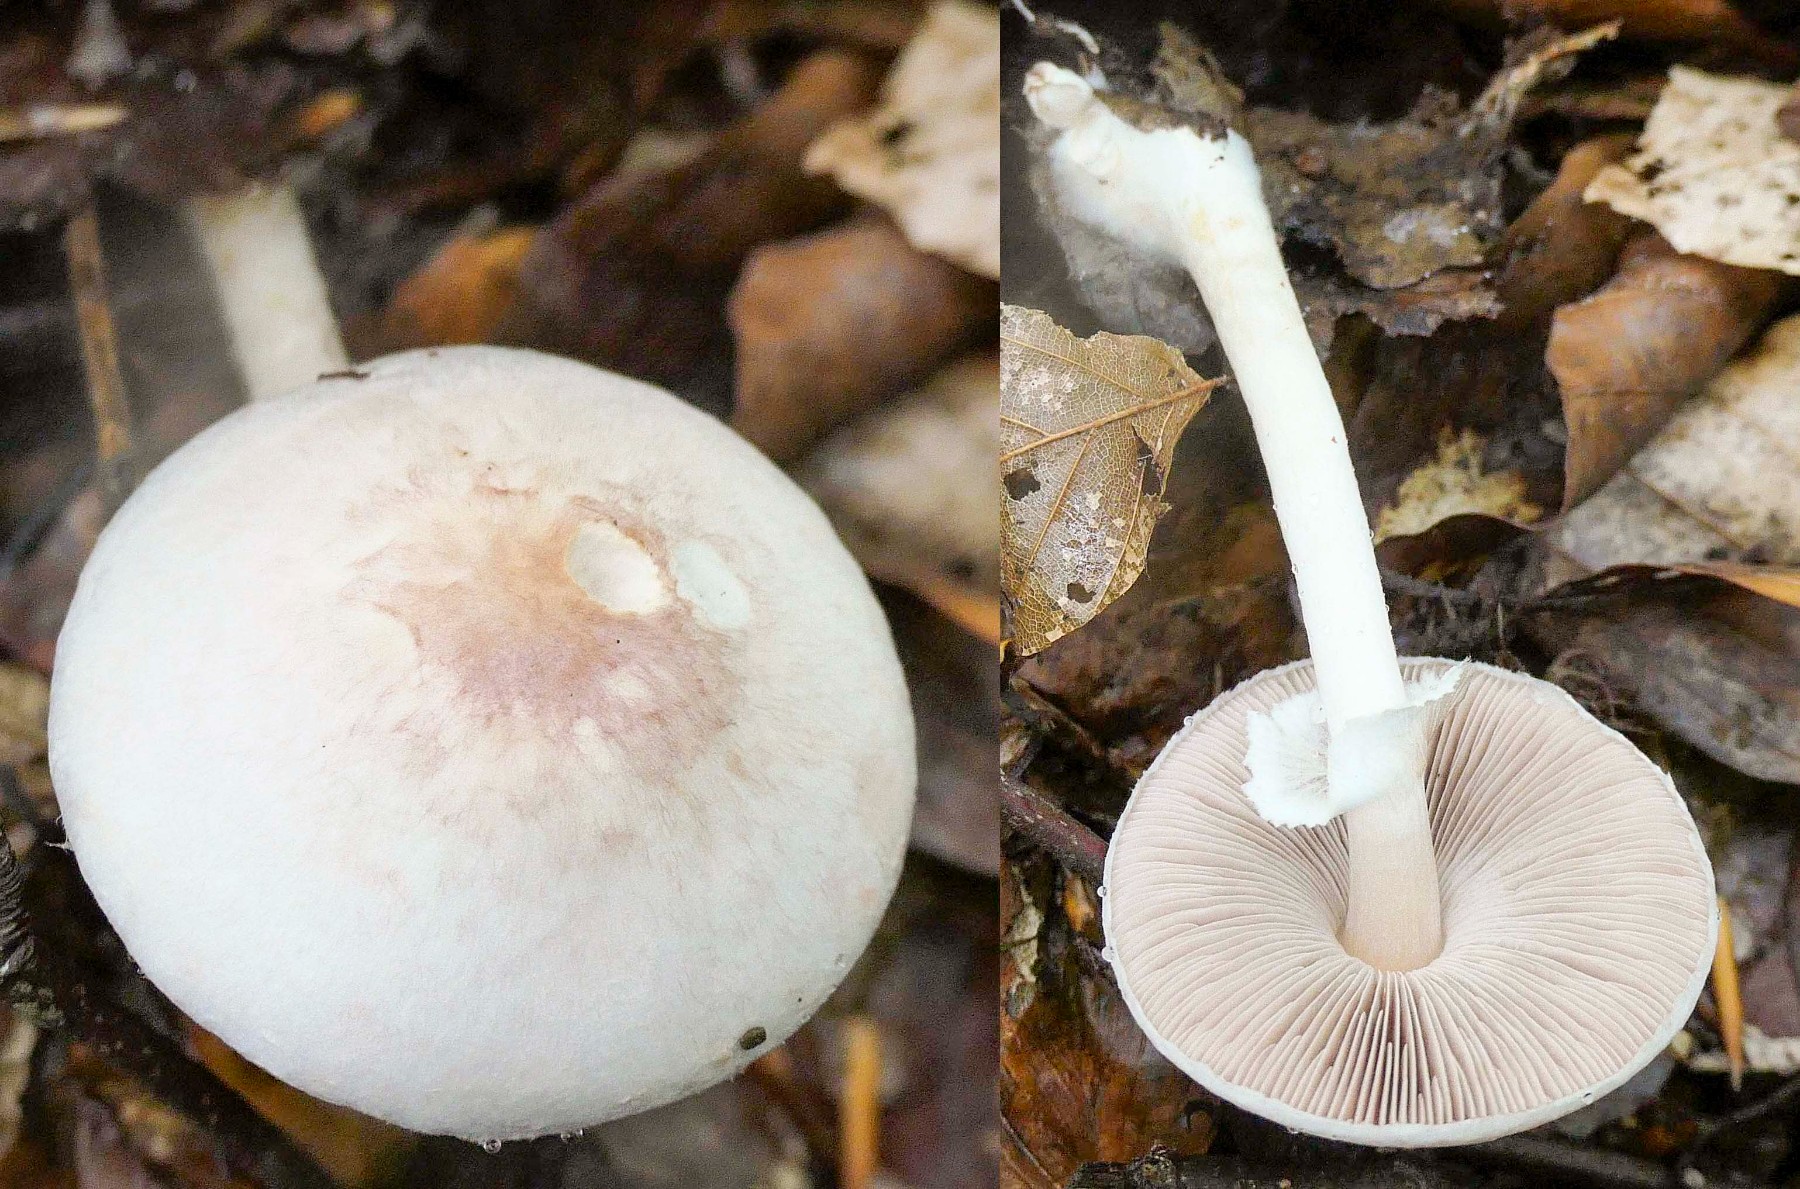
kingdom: Fungi
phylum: Basidiomycota
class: Agaricomycetes
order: Agaricales
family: Agaricaceae
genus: Agaricus
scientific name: Agaricus dulcidulus
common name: blegrød champignon
